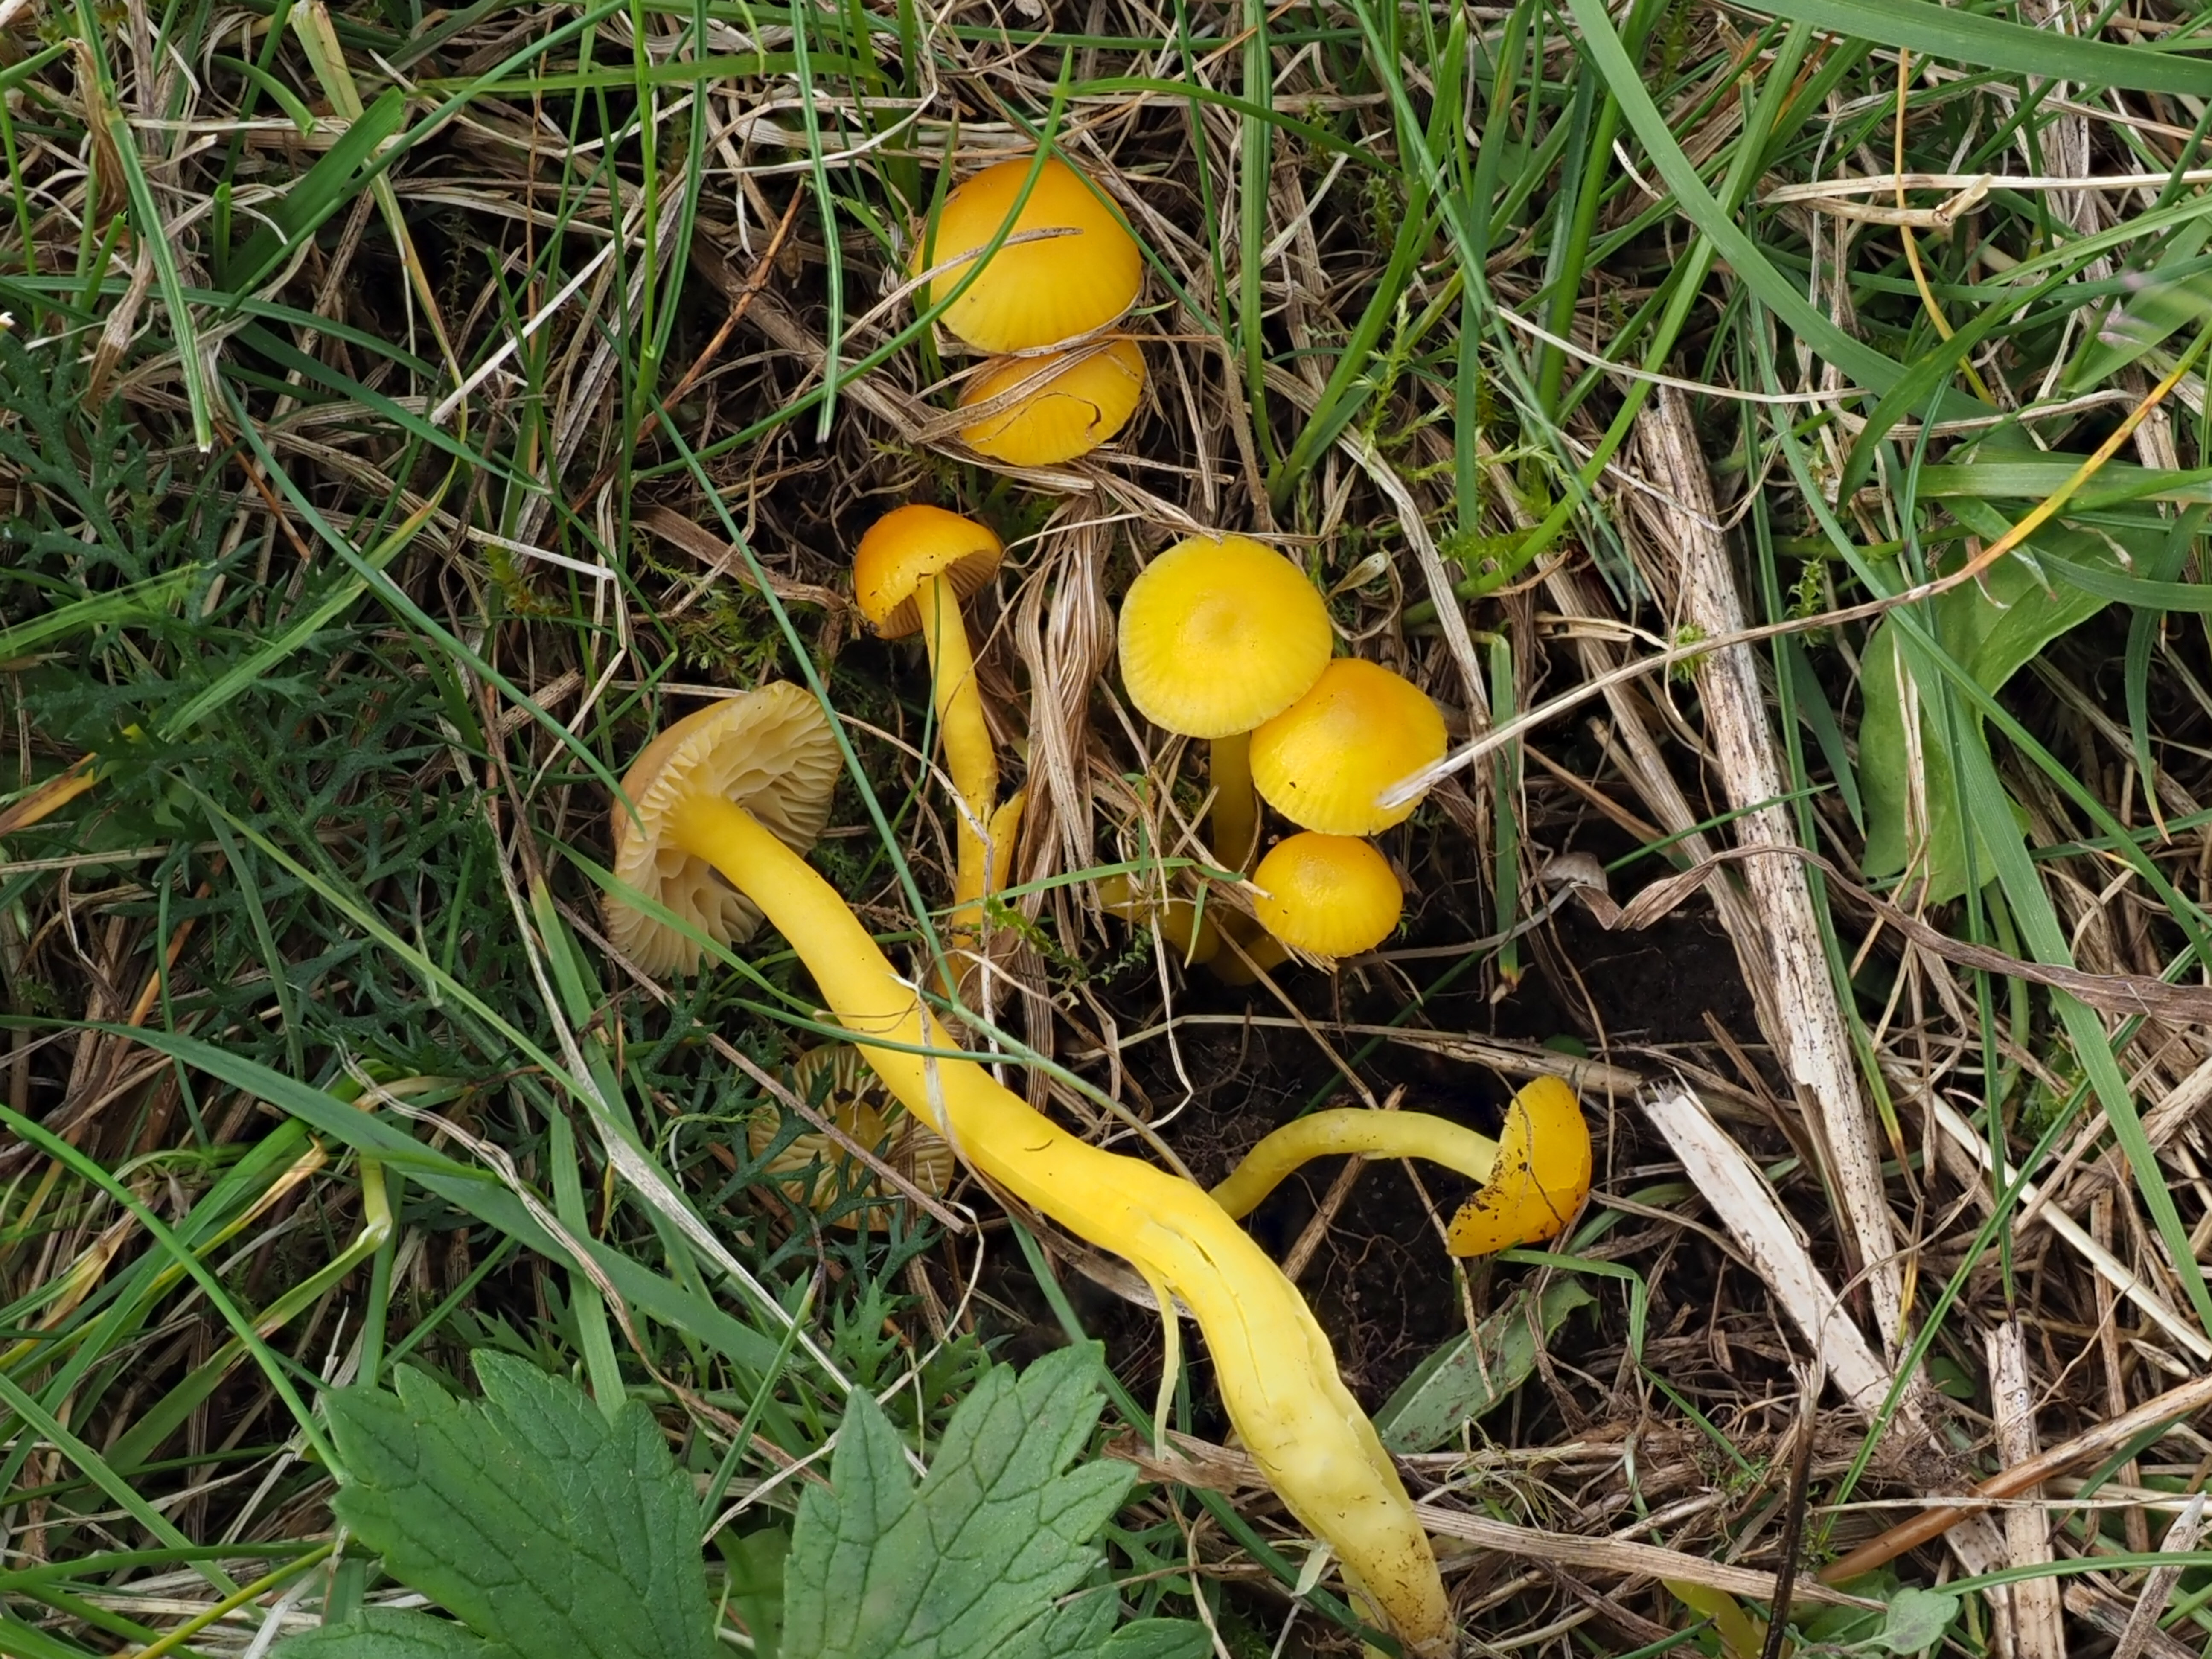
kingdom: Fungi
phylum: Basidiomycota
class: Agaricomycetes
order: Agaricales
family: Hygrophoraceae
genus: Hygrocybe
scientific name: Hygrocybe ceracea
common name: Butter waxcap
